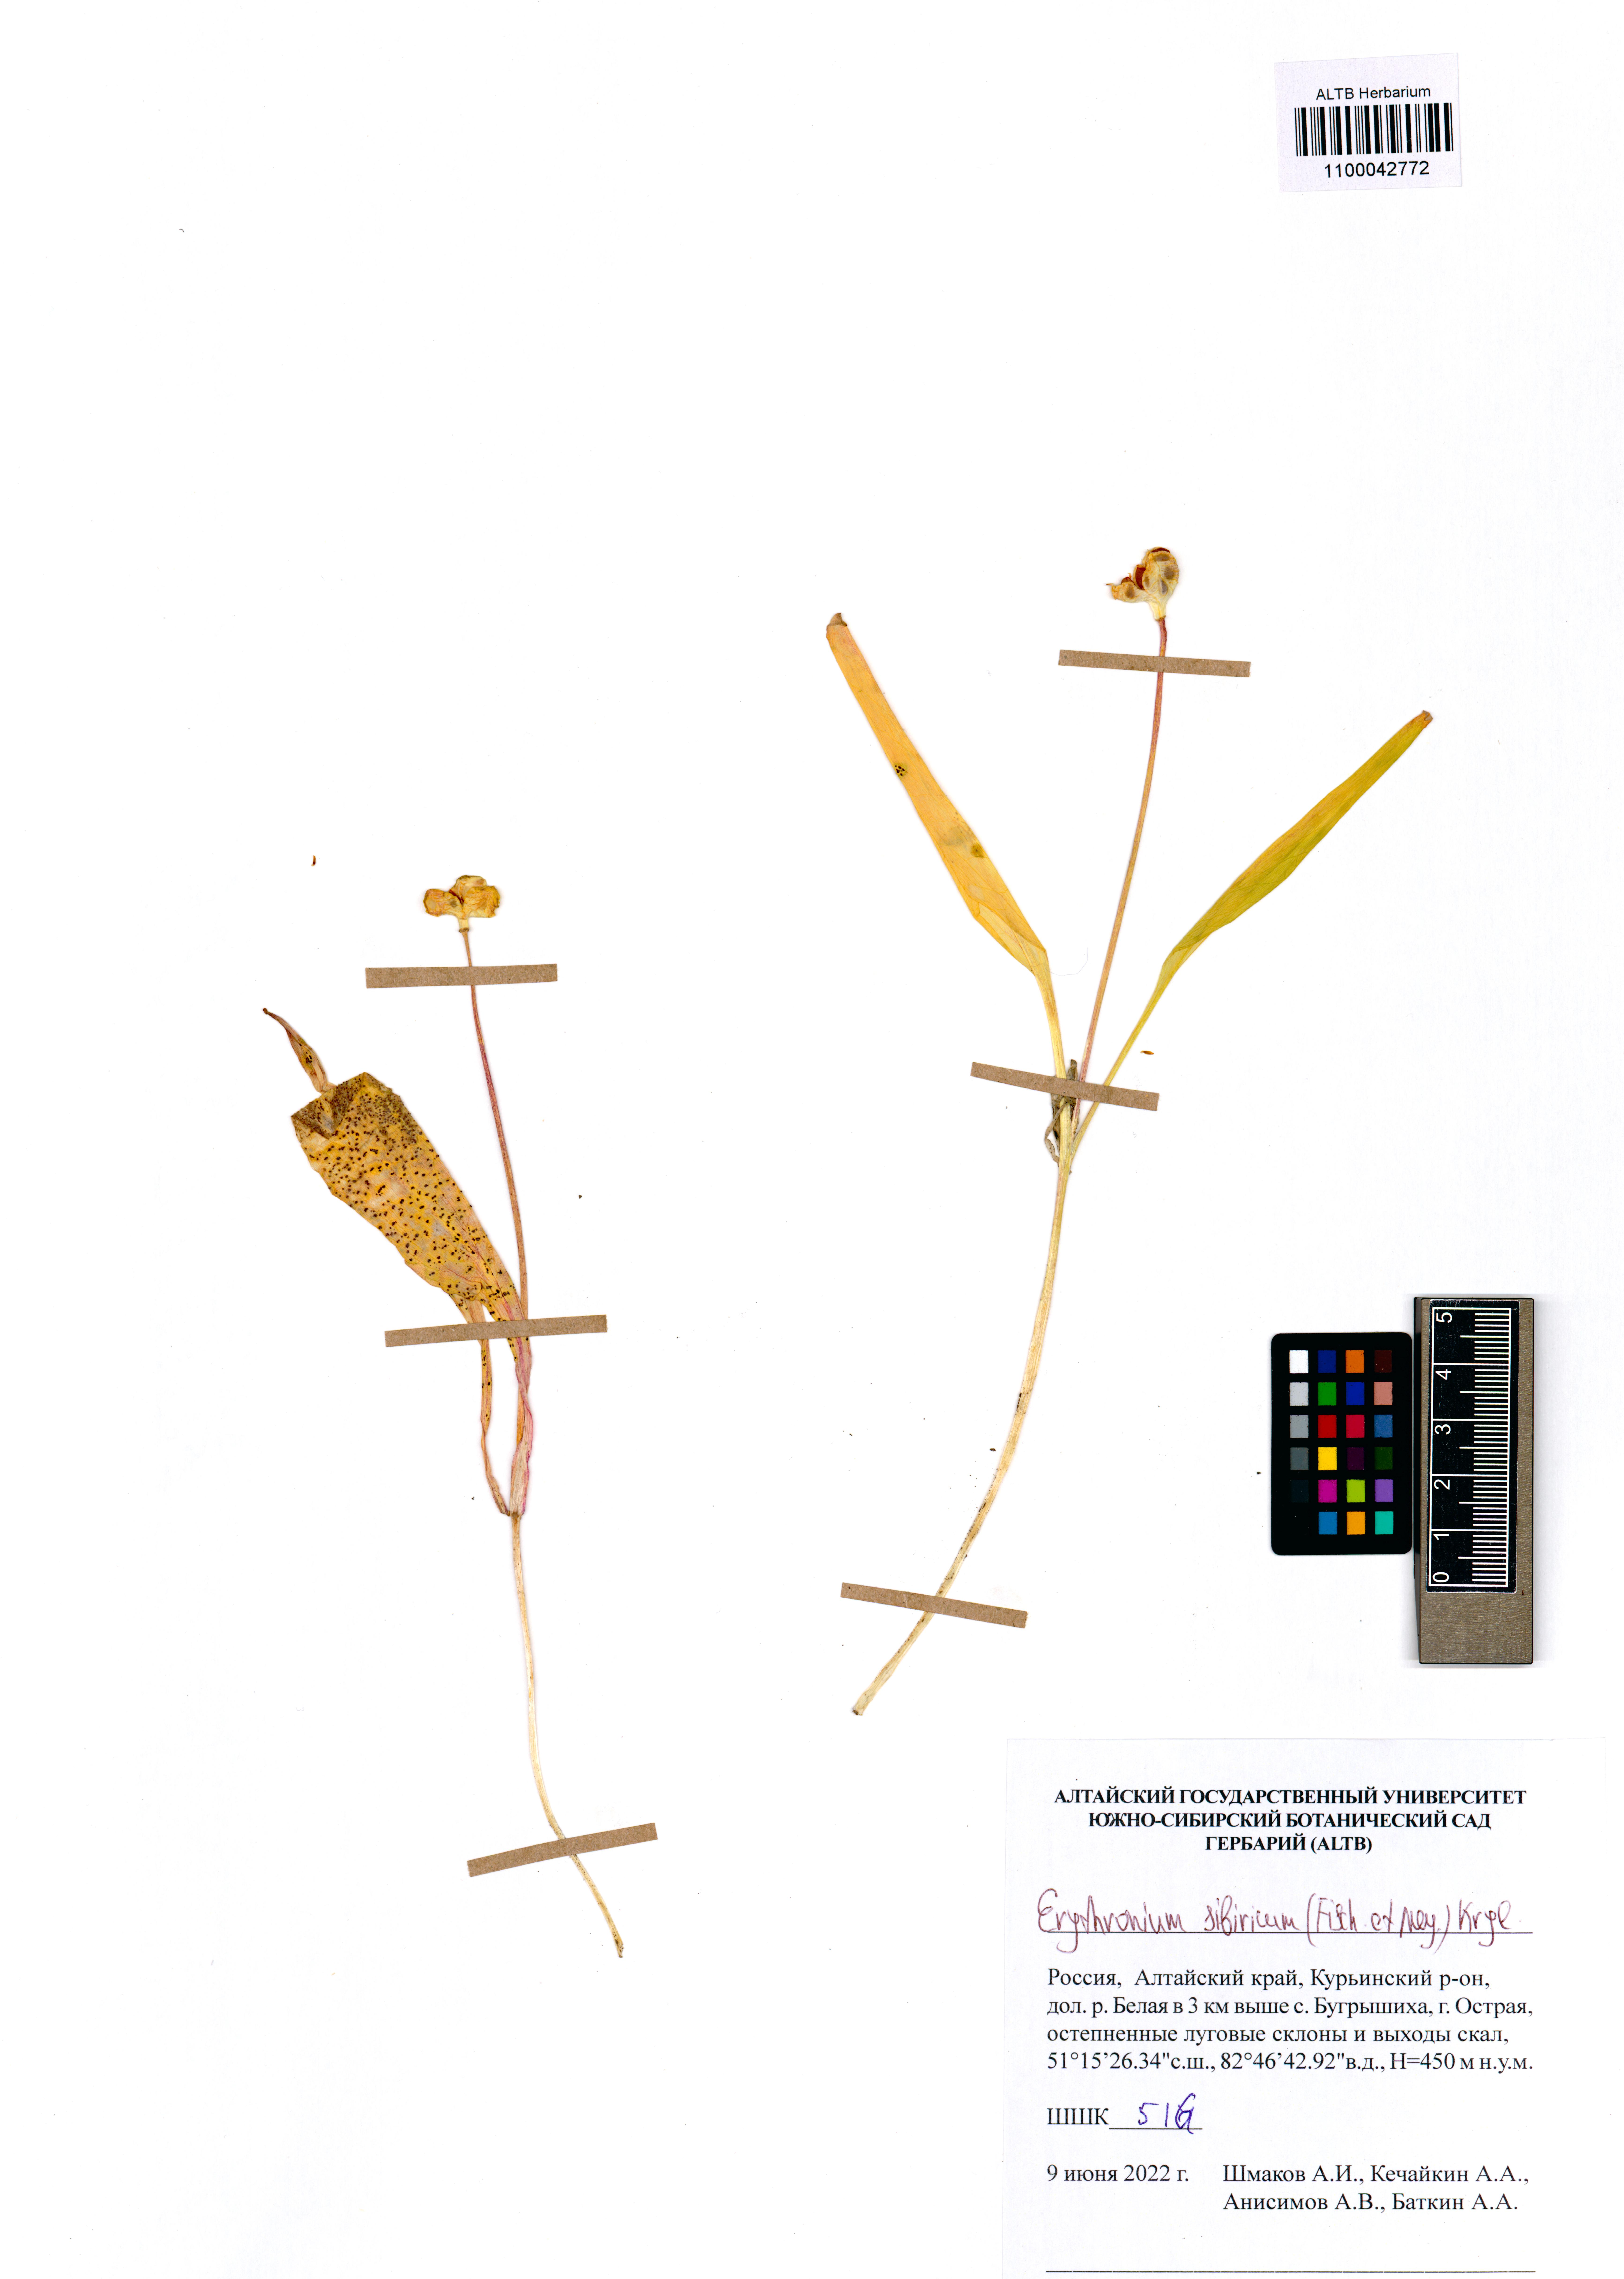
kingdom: Plantae
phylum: Tracheophyta
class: Liliopsida
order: Liliales
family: Liliaceae
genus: Erythronium
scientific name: Erythronium sibiricum
